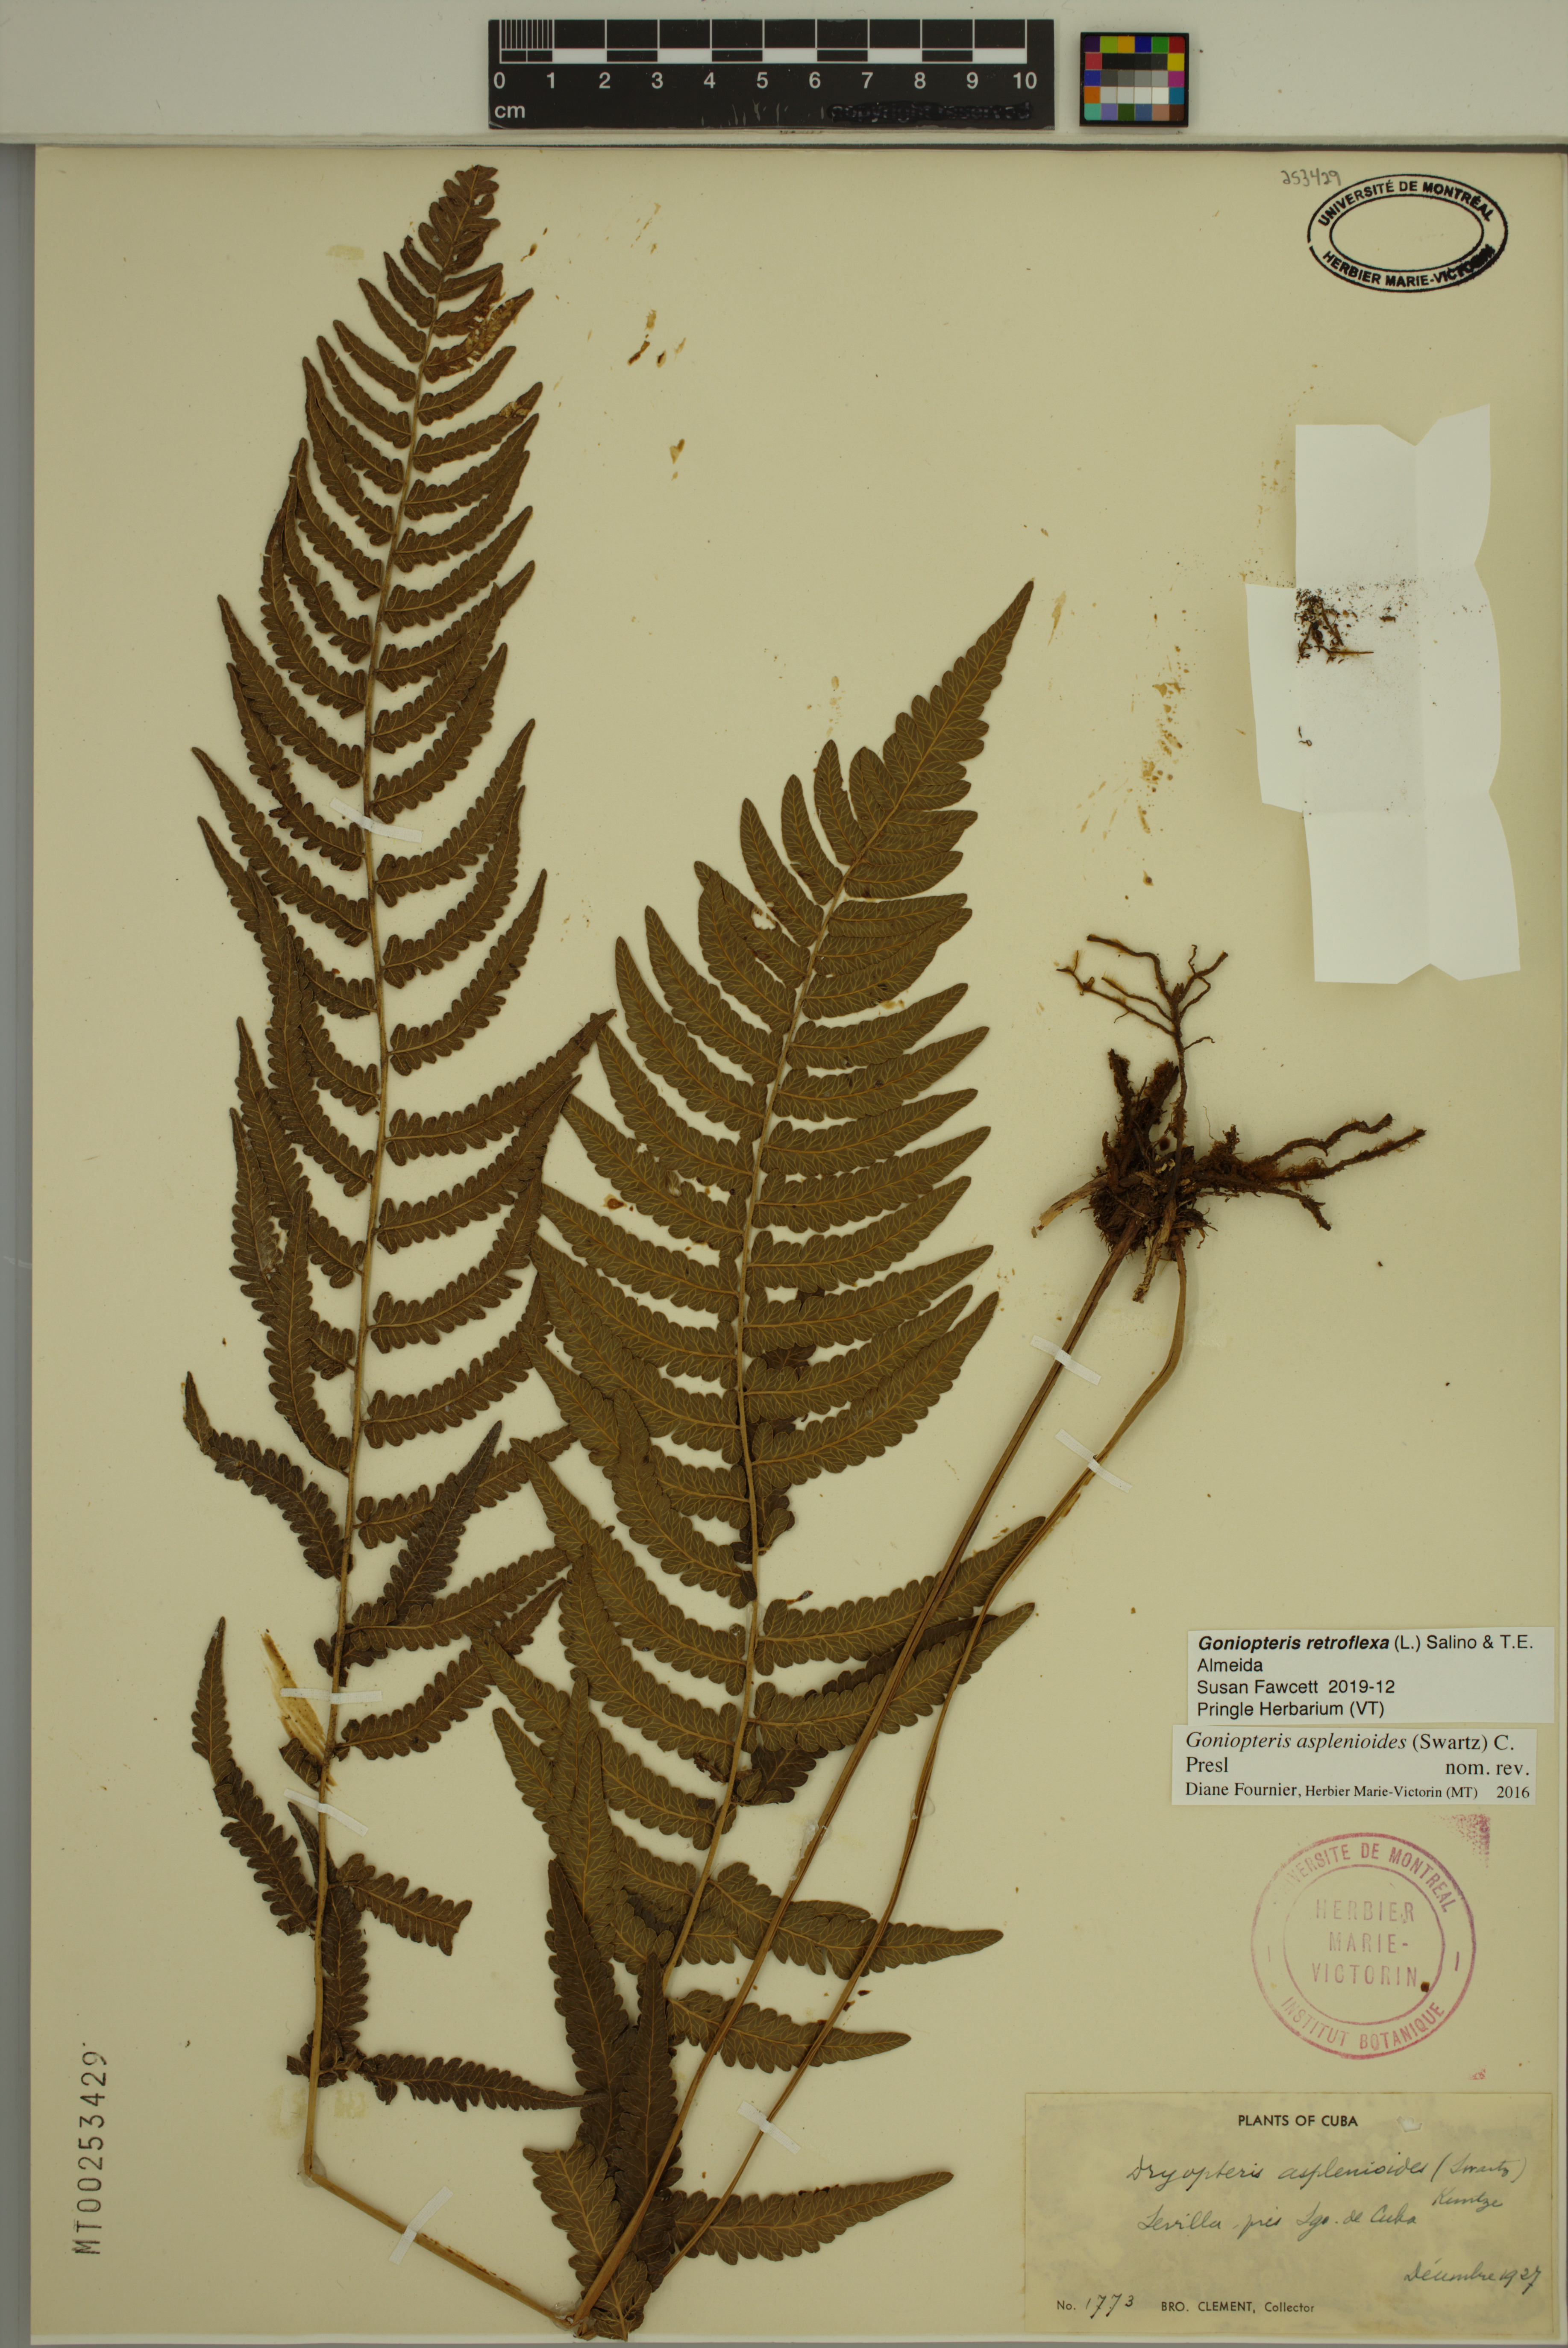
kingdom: Plantae
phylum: Tracheophyta
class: Polypodiopsida
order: Polypodiales
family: Thelypteridaceae
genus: Goniopteris
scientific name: Goniopteris retroflexa
